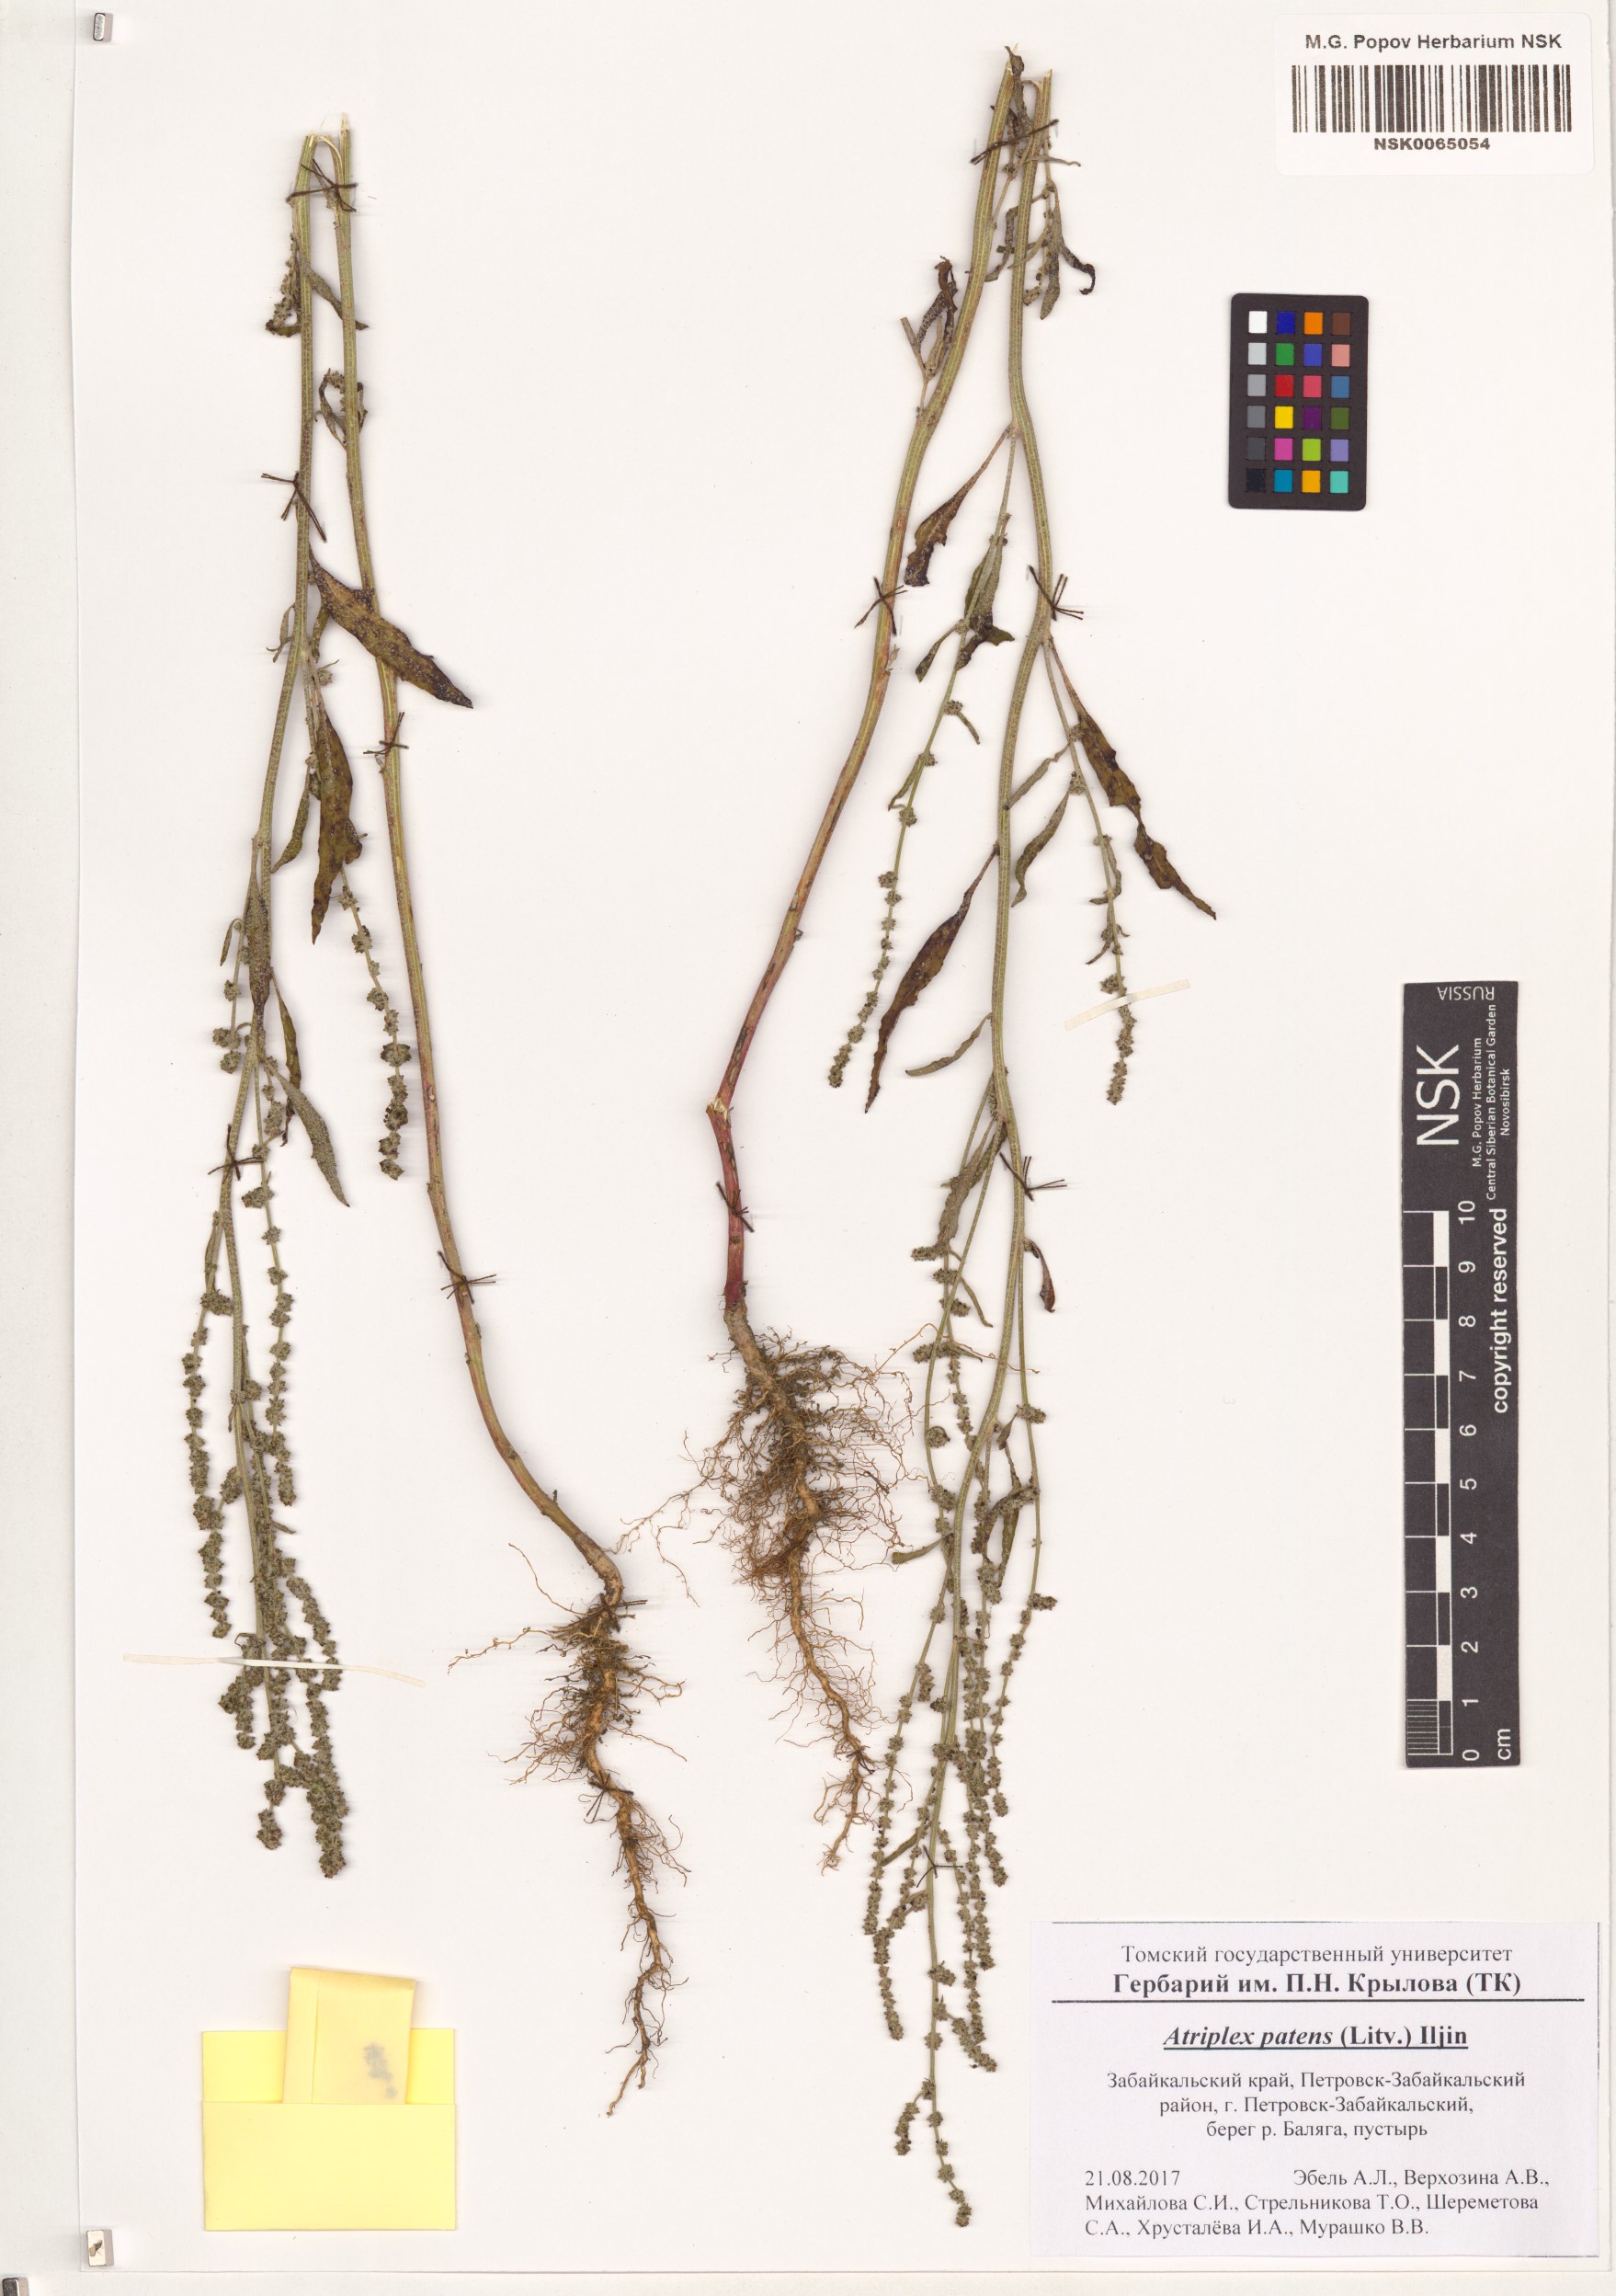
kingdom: Plantae
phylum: Tracheophyta
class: Magnoliopsida
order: Caryophyllales
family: Amaranthaceae
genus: Atriplex
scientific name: Atriplex patens
